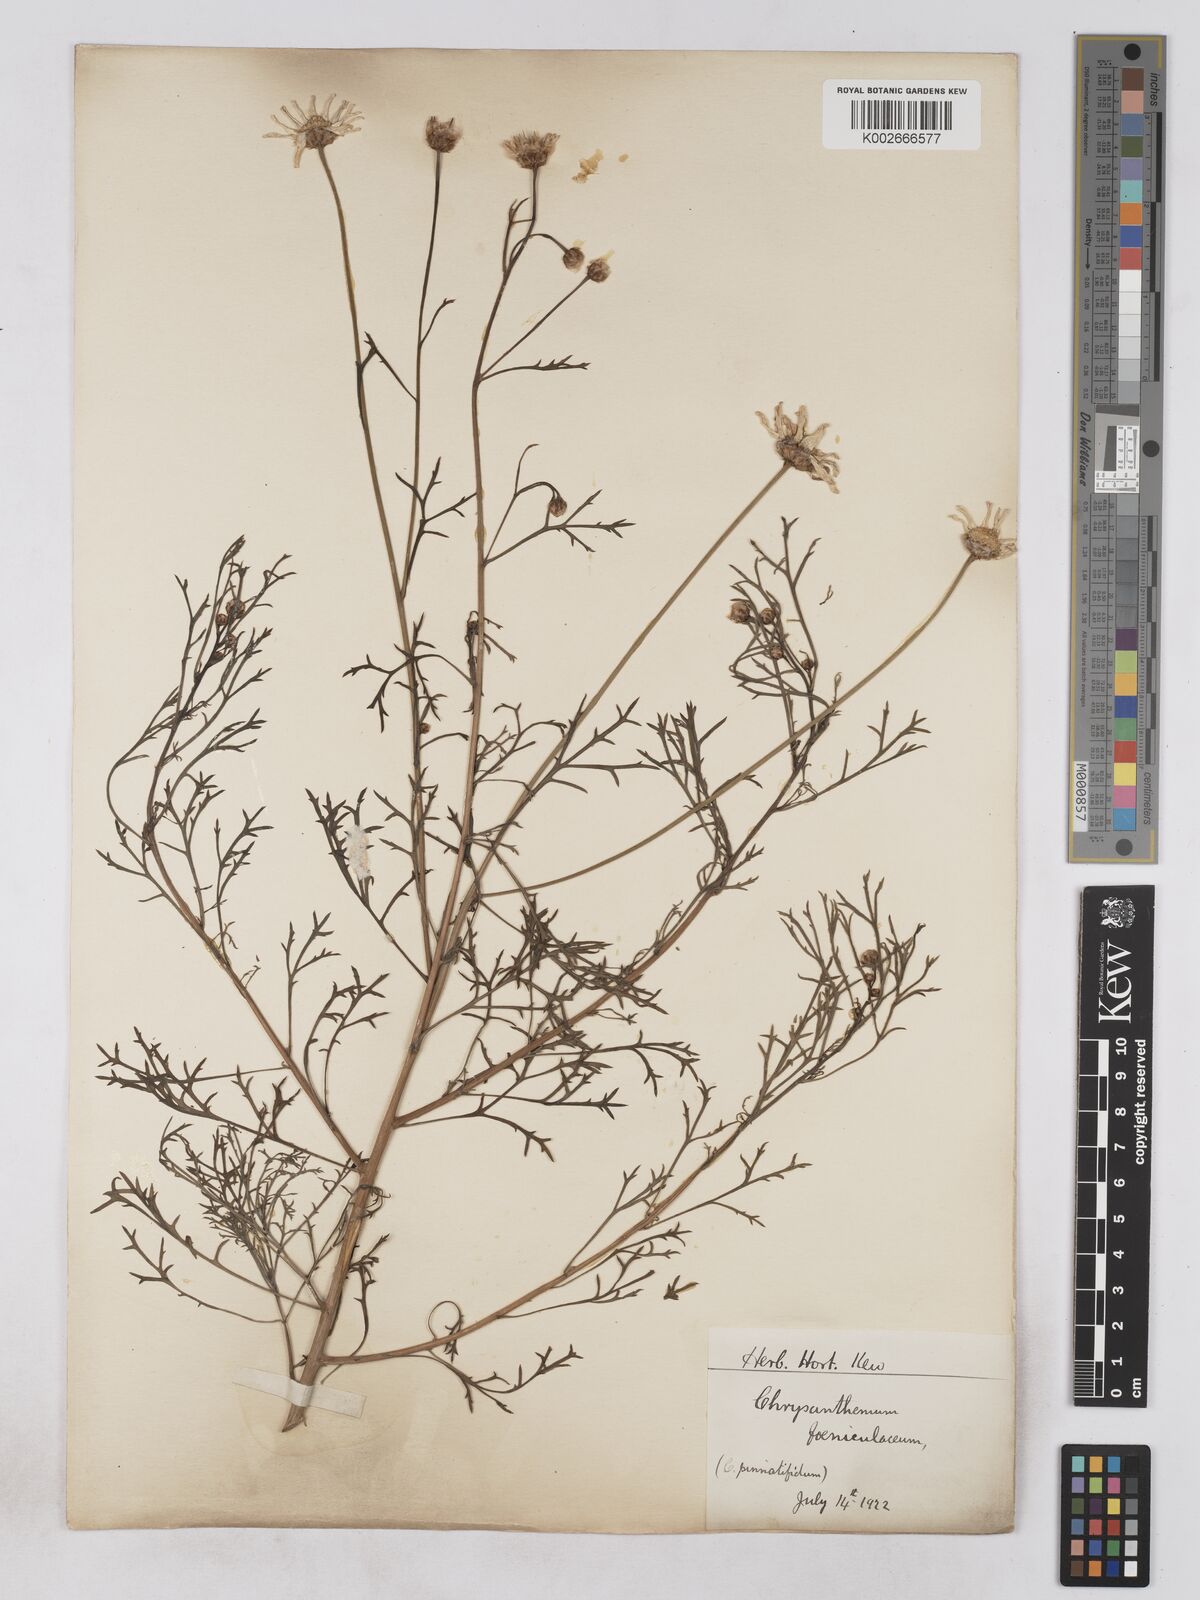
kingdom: Plantae
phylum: Tracheophyta
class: Magnoliopsida
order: Asterales
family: Asteraceae
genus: Argyranthemum
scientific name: Argyranthemum frutescens
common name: Paris daisy
